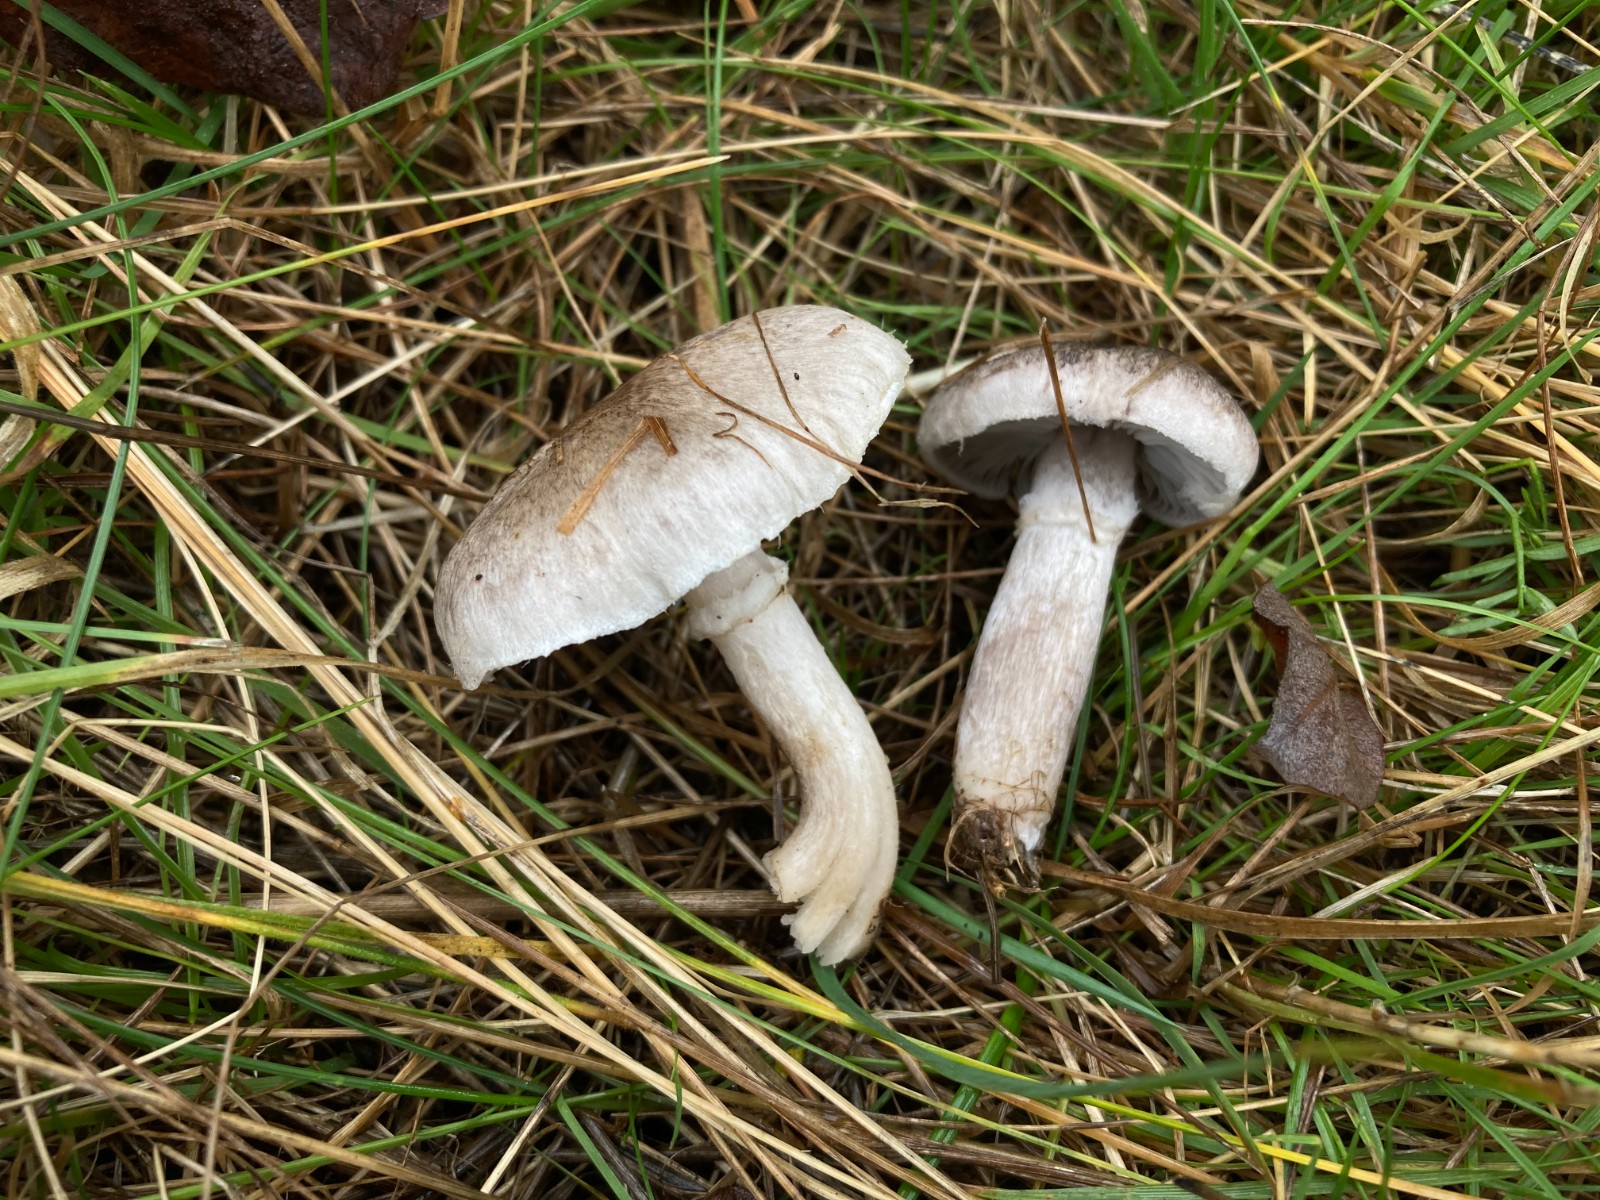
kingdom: Fungi
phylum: Basidiomycota
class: Agaricomycetes
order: Agaricales
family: Tricholomataceae
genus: Tricholoma
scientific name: Tricholoma cingulatum
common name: ring-ridderhat
